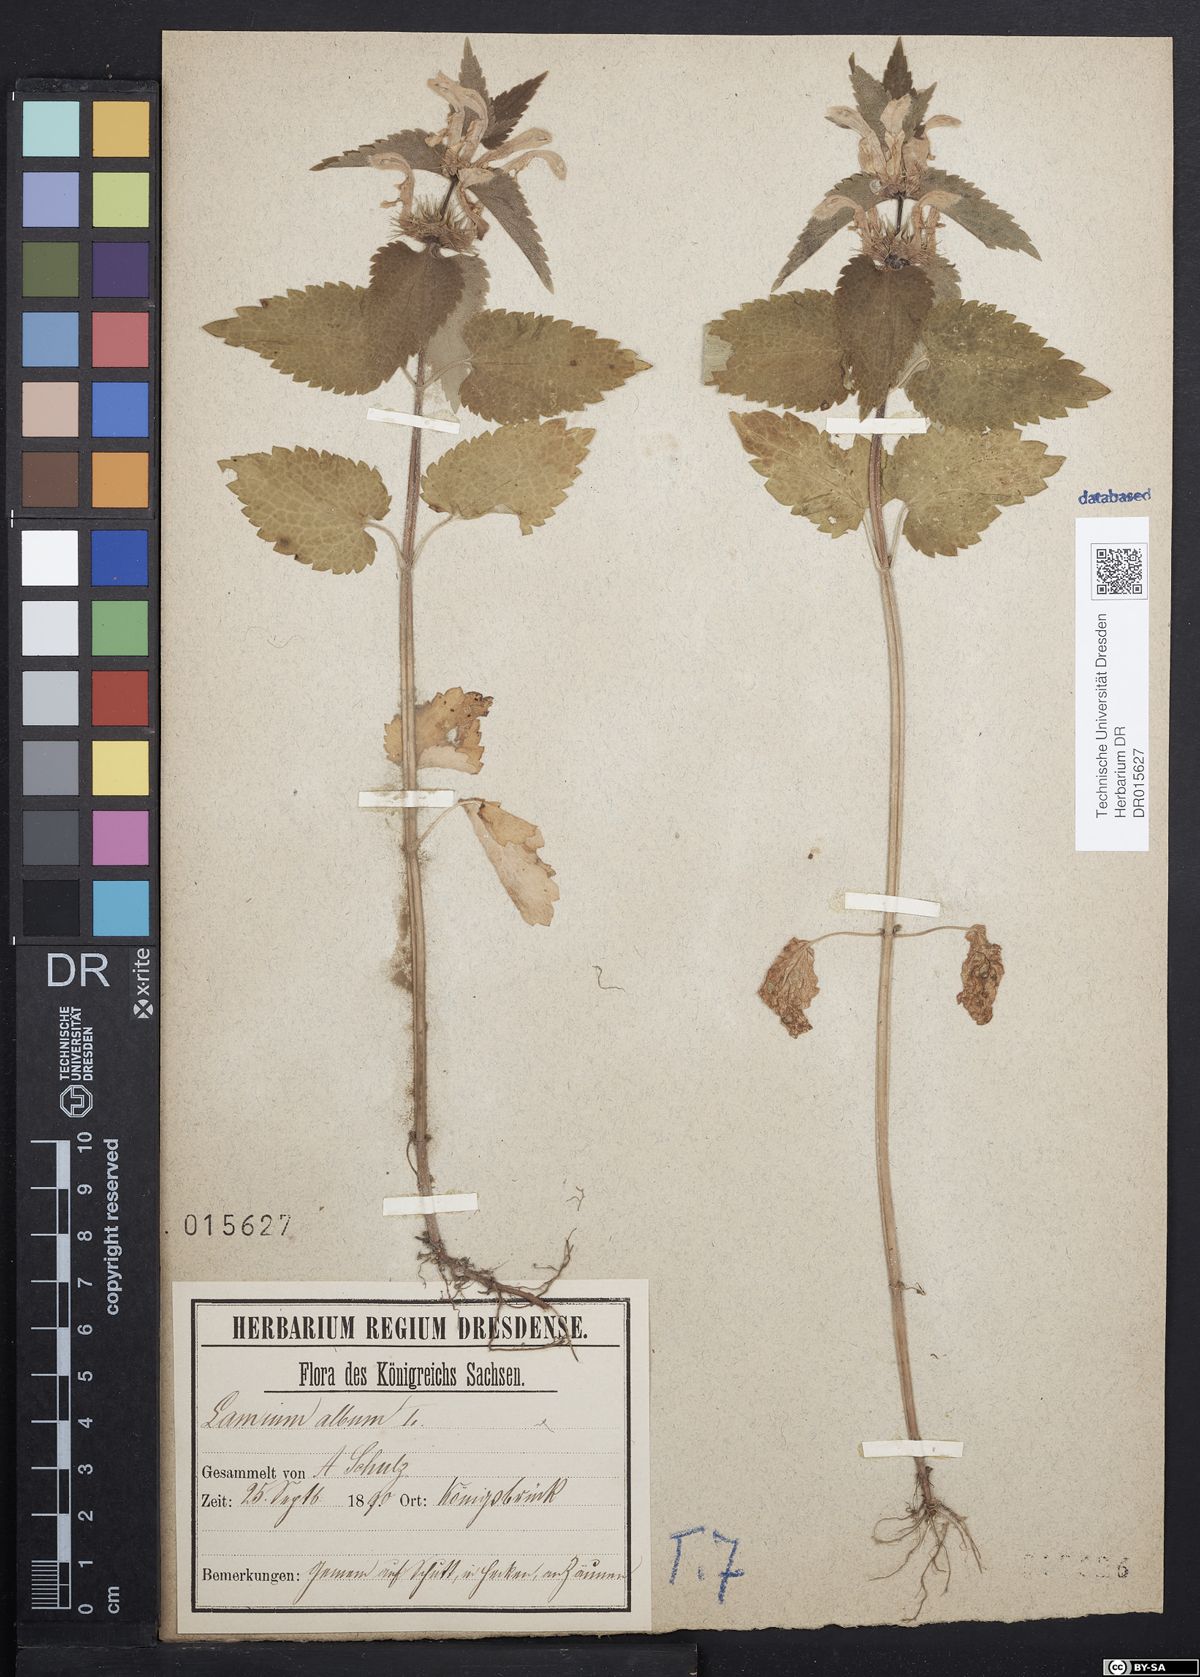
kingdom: Plantae
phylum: Tracheophyta
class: Magnoliopsida
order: Lamiales
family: Lamiaceae
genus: Lamium
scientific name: Lamium album
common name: White dead-nettle
